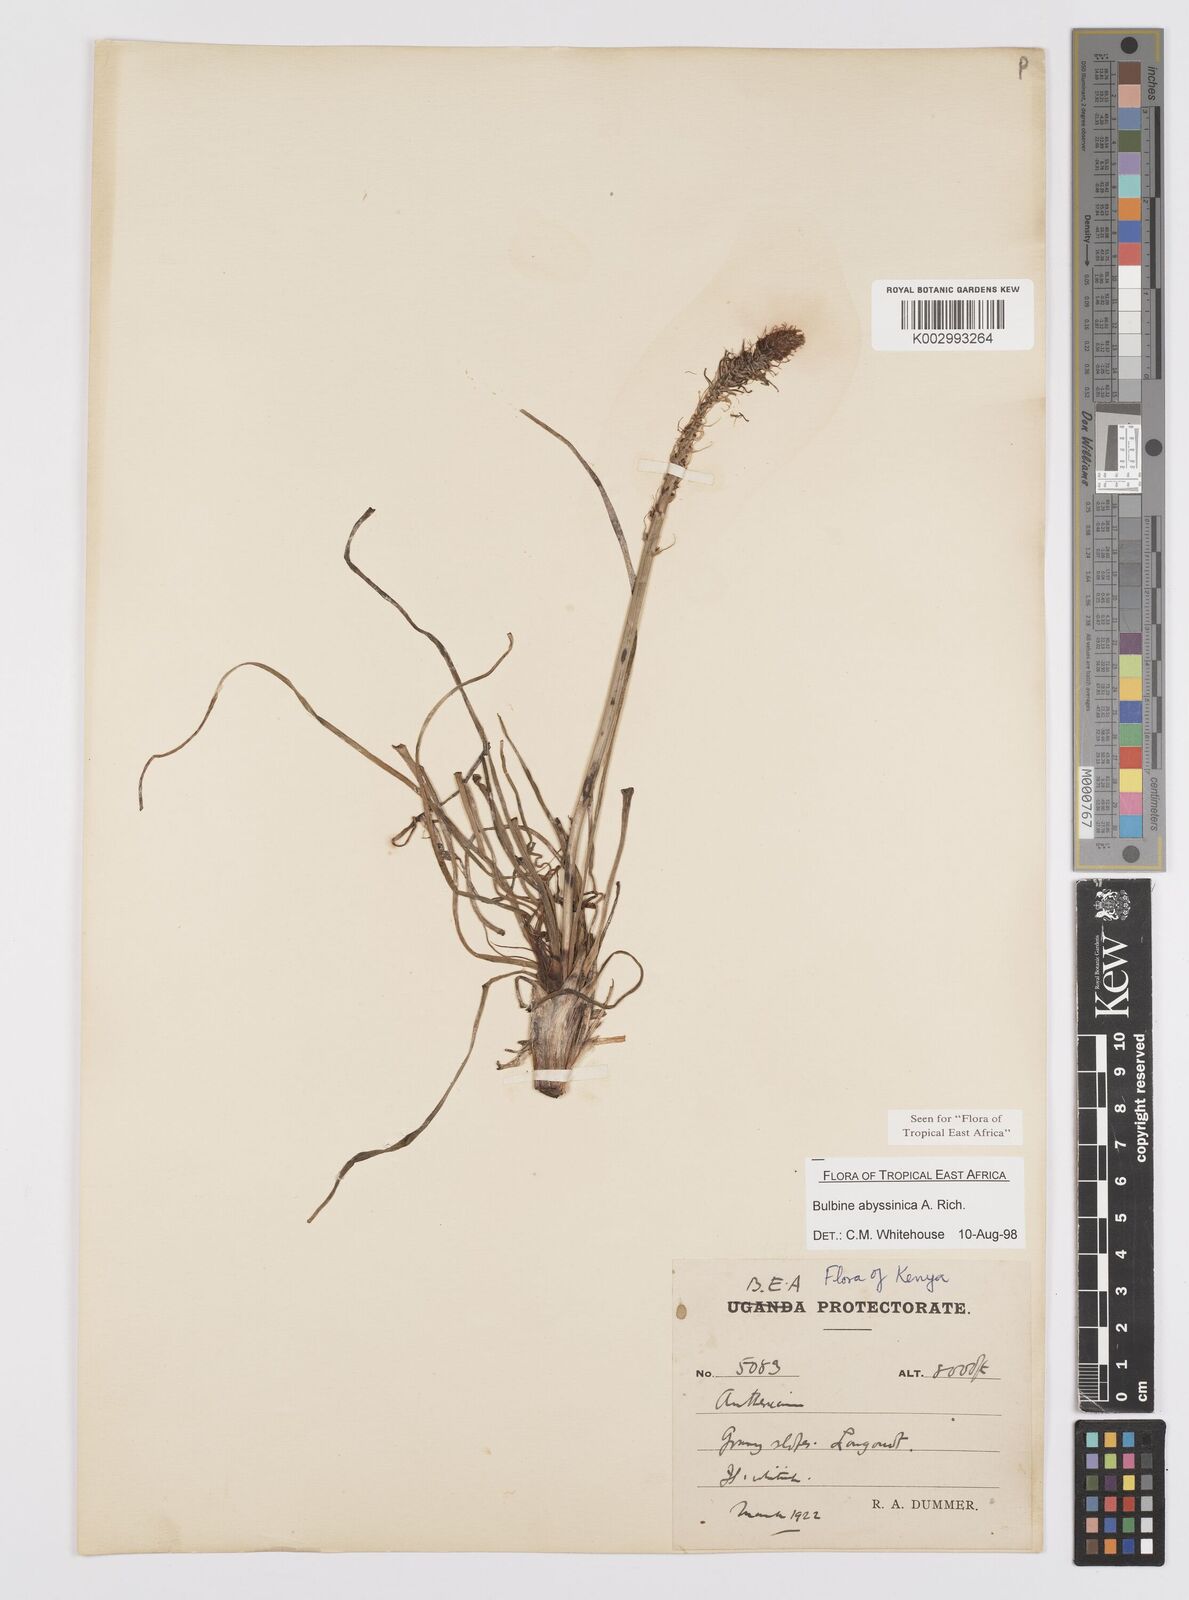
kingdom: Plantae
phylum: Tracheophyta
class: Liliopsida
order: Asparagales
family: Asphodelaceae
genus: Bulbine
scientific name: Bulbine abyssinica
